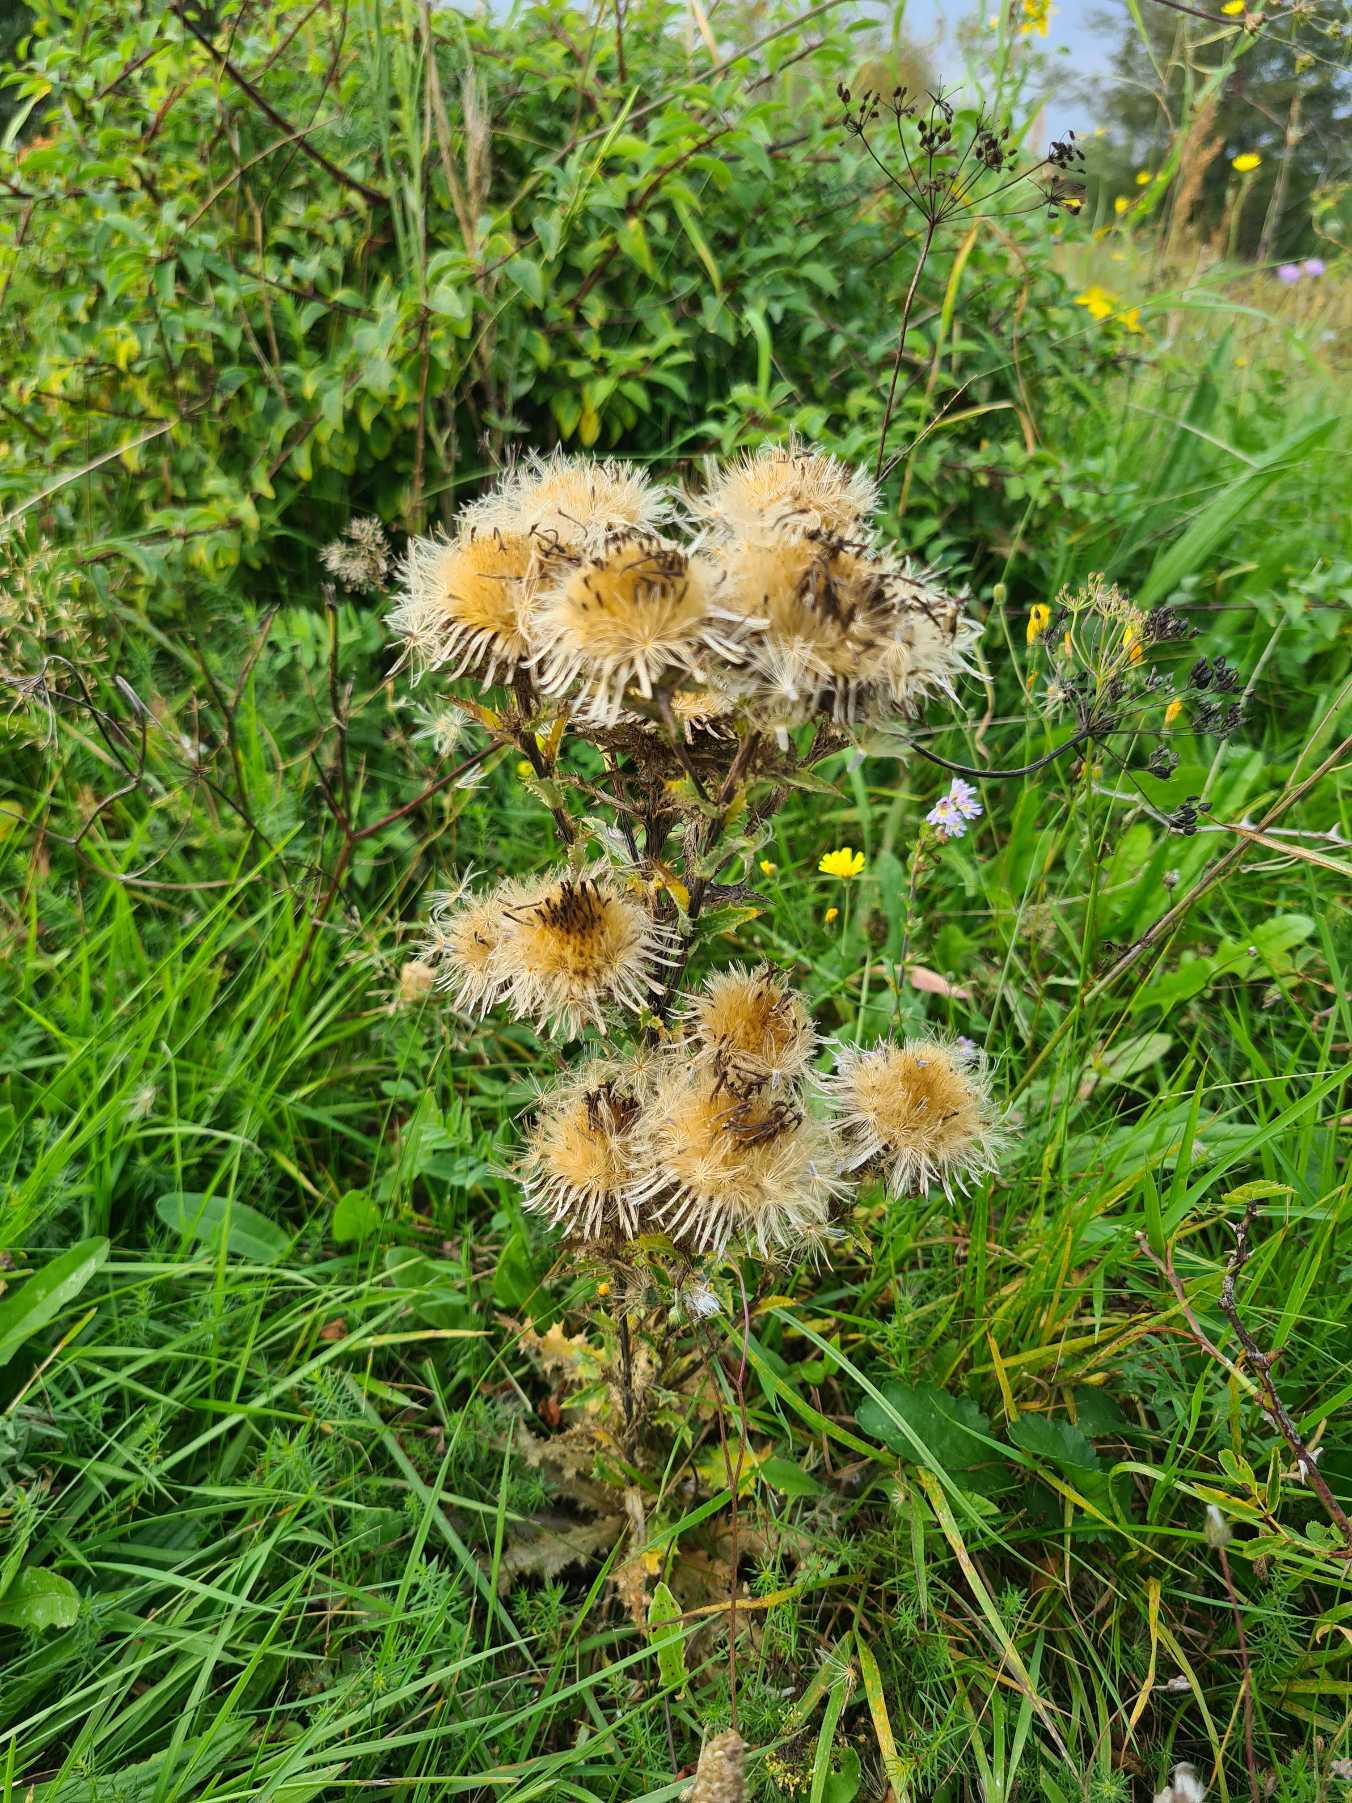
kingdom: Plantae
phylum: Tracheophyta
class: Magnoliopsida
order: Asterales
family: Asteraceae
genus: Carlina
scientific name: Carlina vulgaris
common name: Bakketidsel
